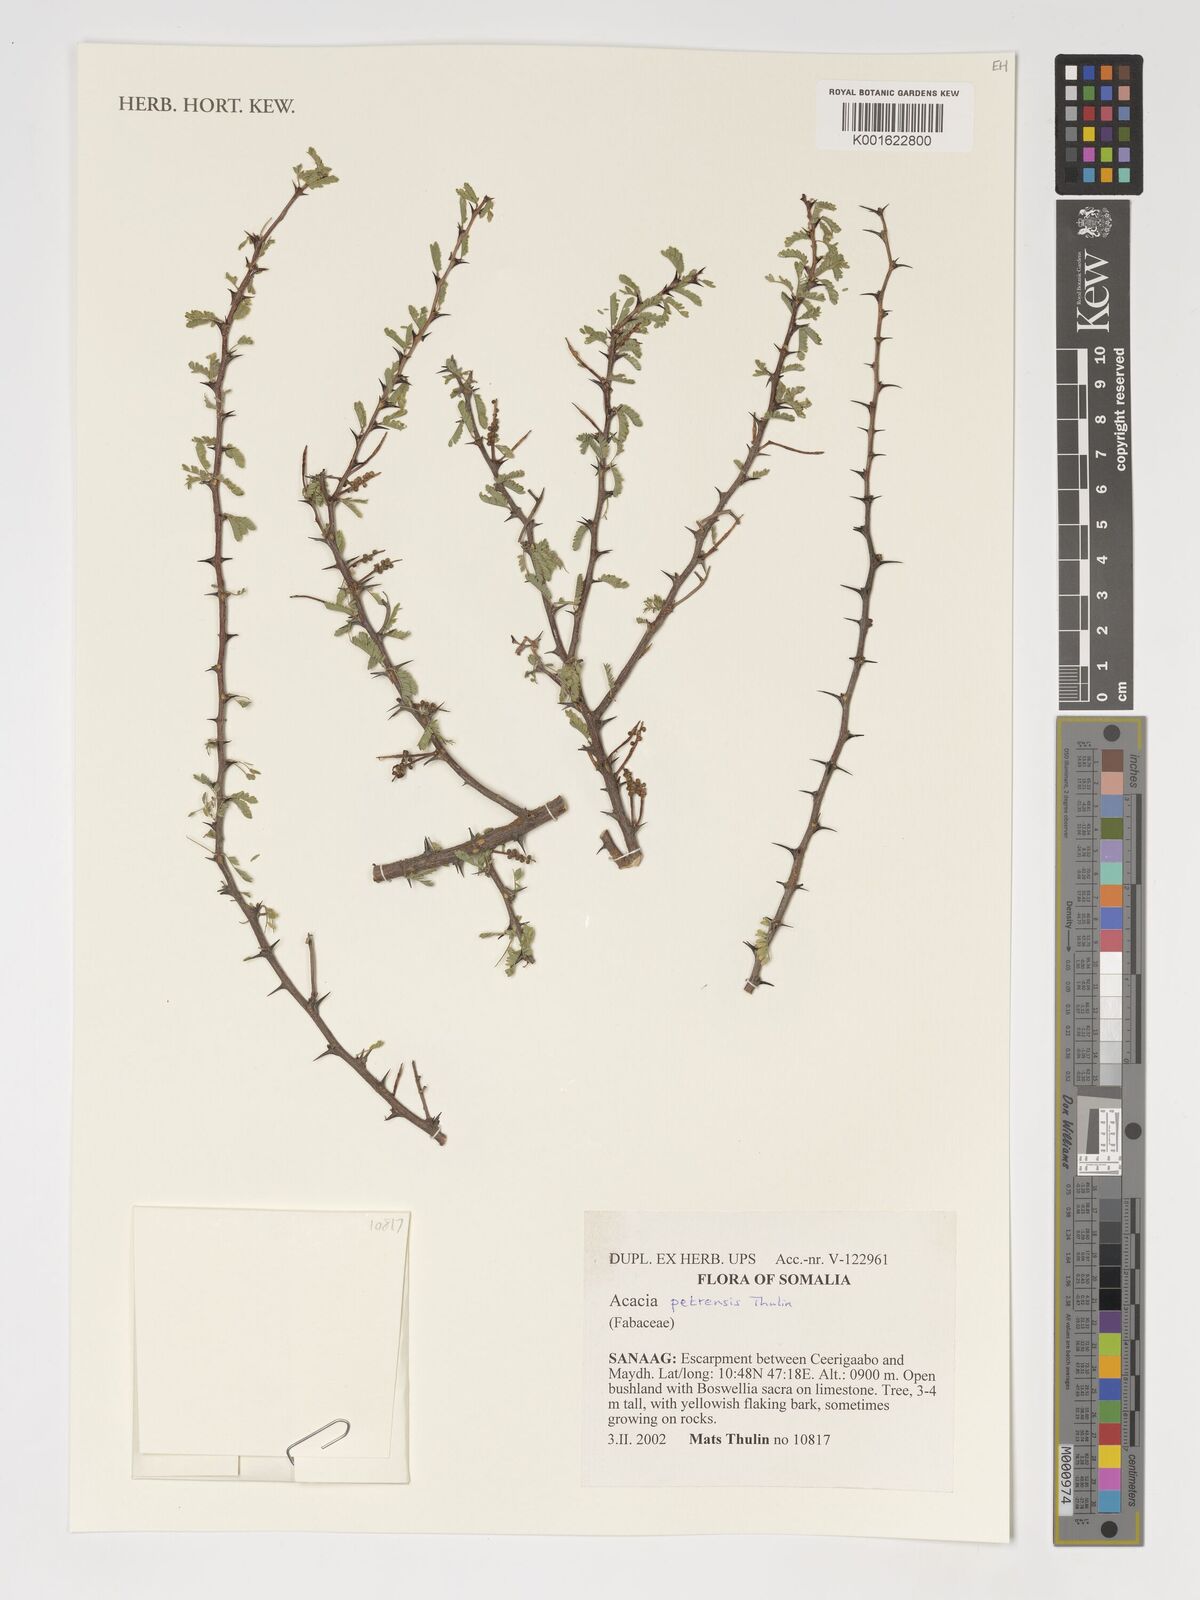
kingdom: Plantae
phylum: Tracheophyta
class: Magnoliopsida
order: Fabales
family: Fabaceae
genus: Senegalia
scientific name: Senegalia petrensis
